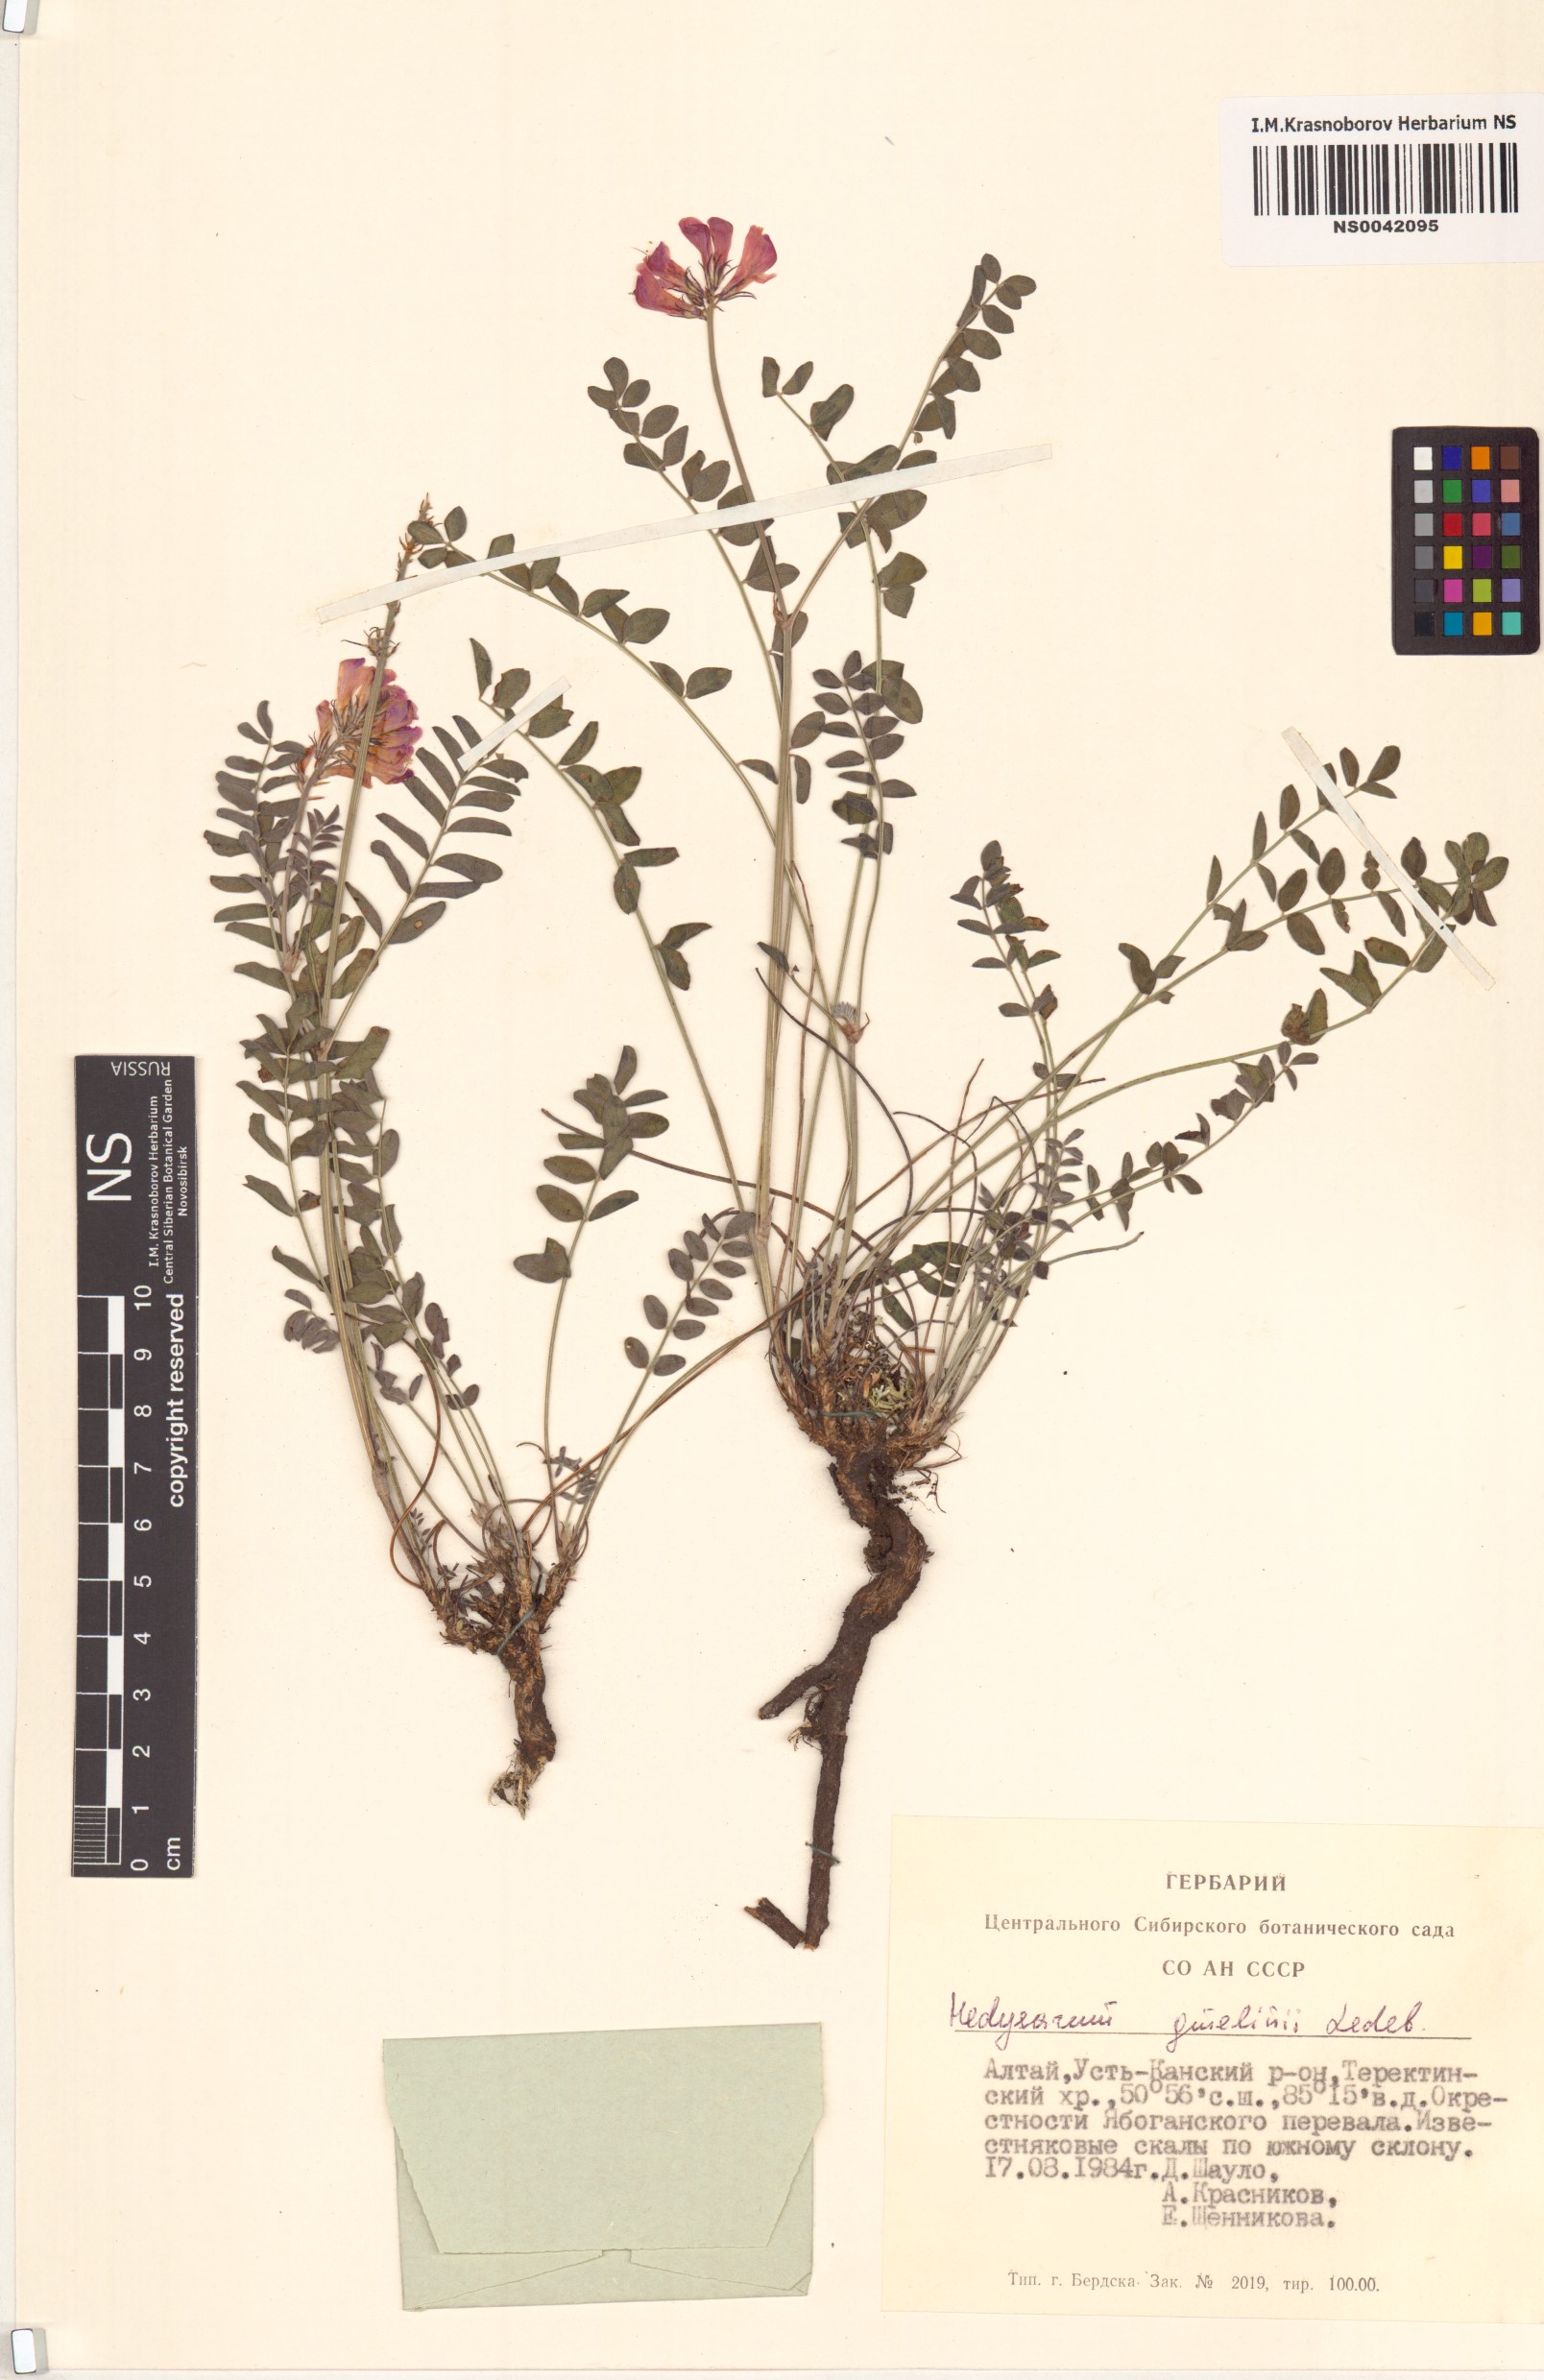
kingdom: Plantae
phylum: Tracheophyta
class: Magnoliopsida
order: Fabales
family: Fabaceae
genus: Hedysarum
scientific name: Hedysarum gmelinii
